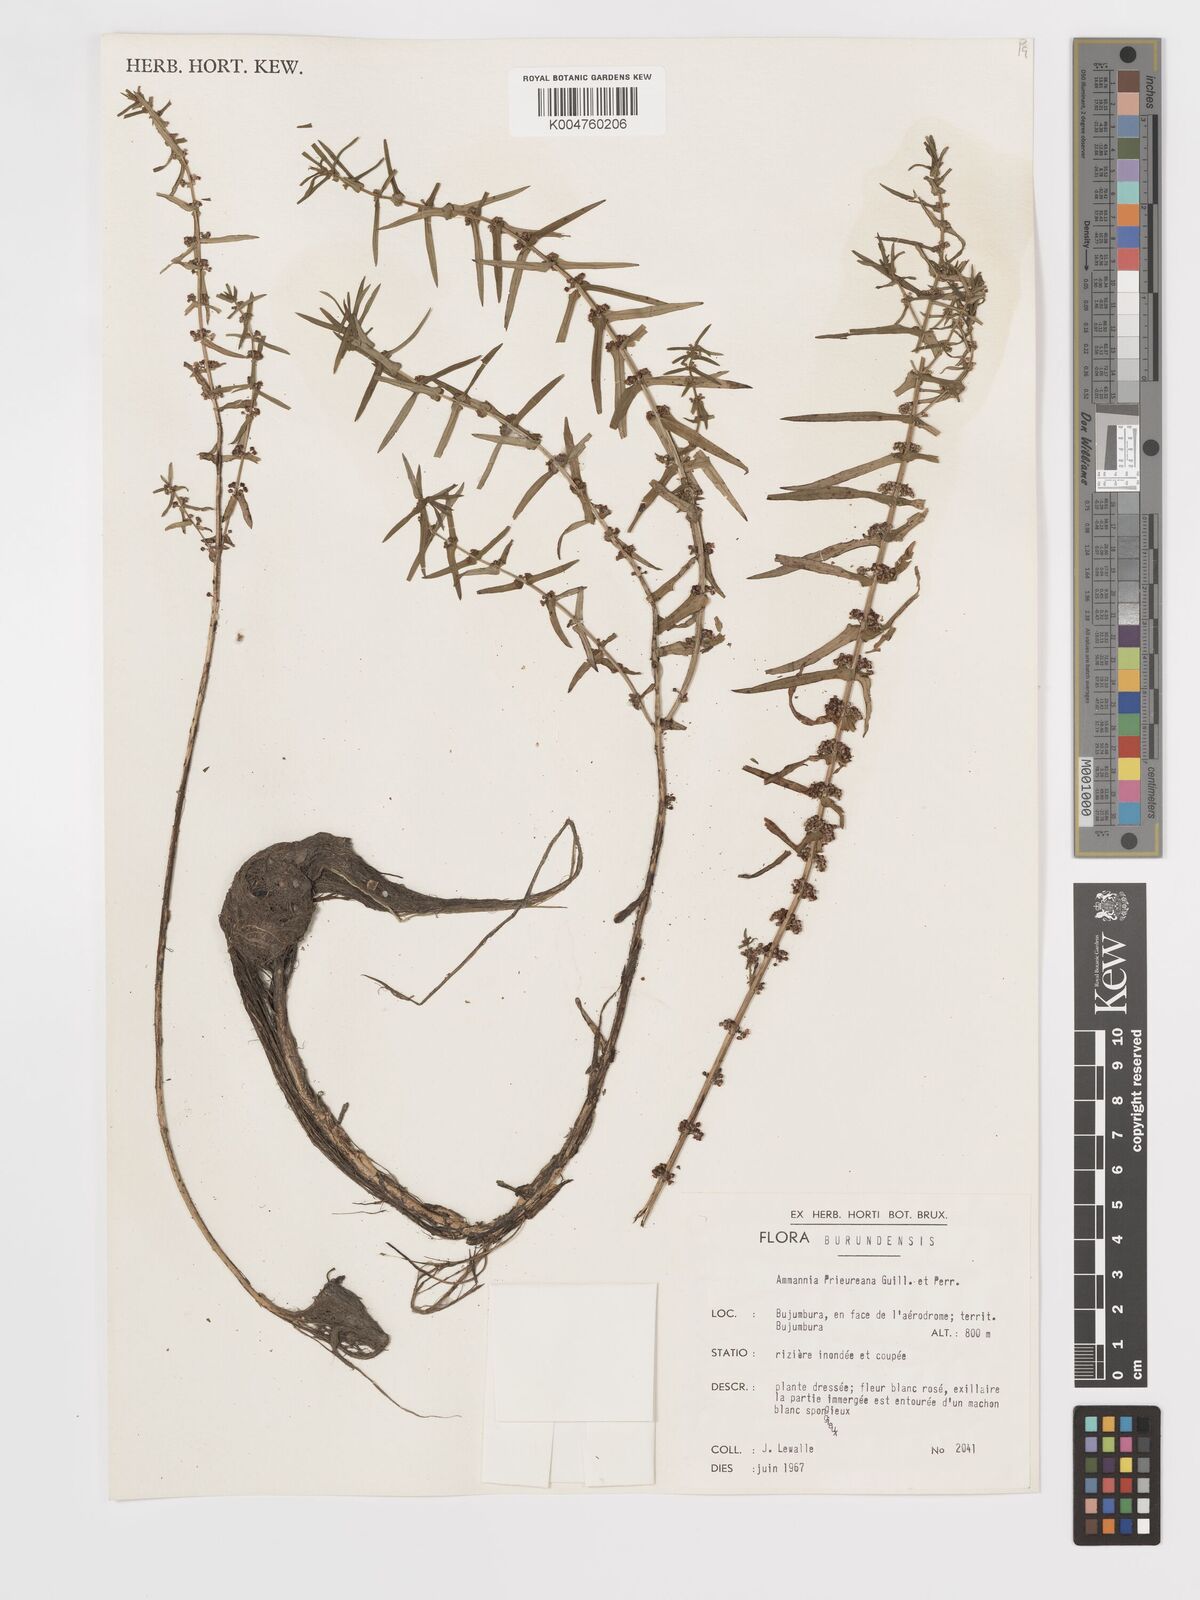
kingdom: Plantae
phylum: Tracheophyta
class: Magnoliopsida
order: Myrtales
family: Lythraceae
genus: Ammannia
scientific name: Ammannia prieuriana
